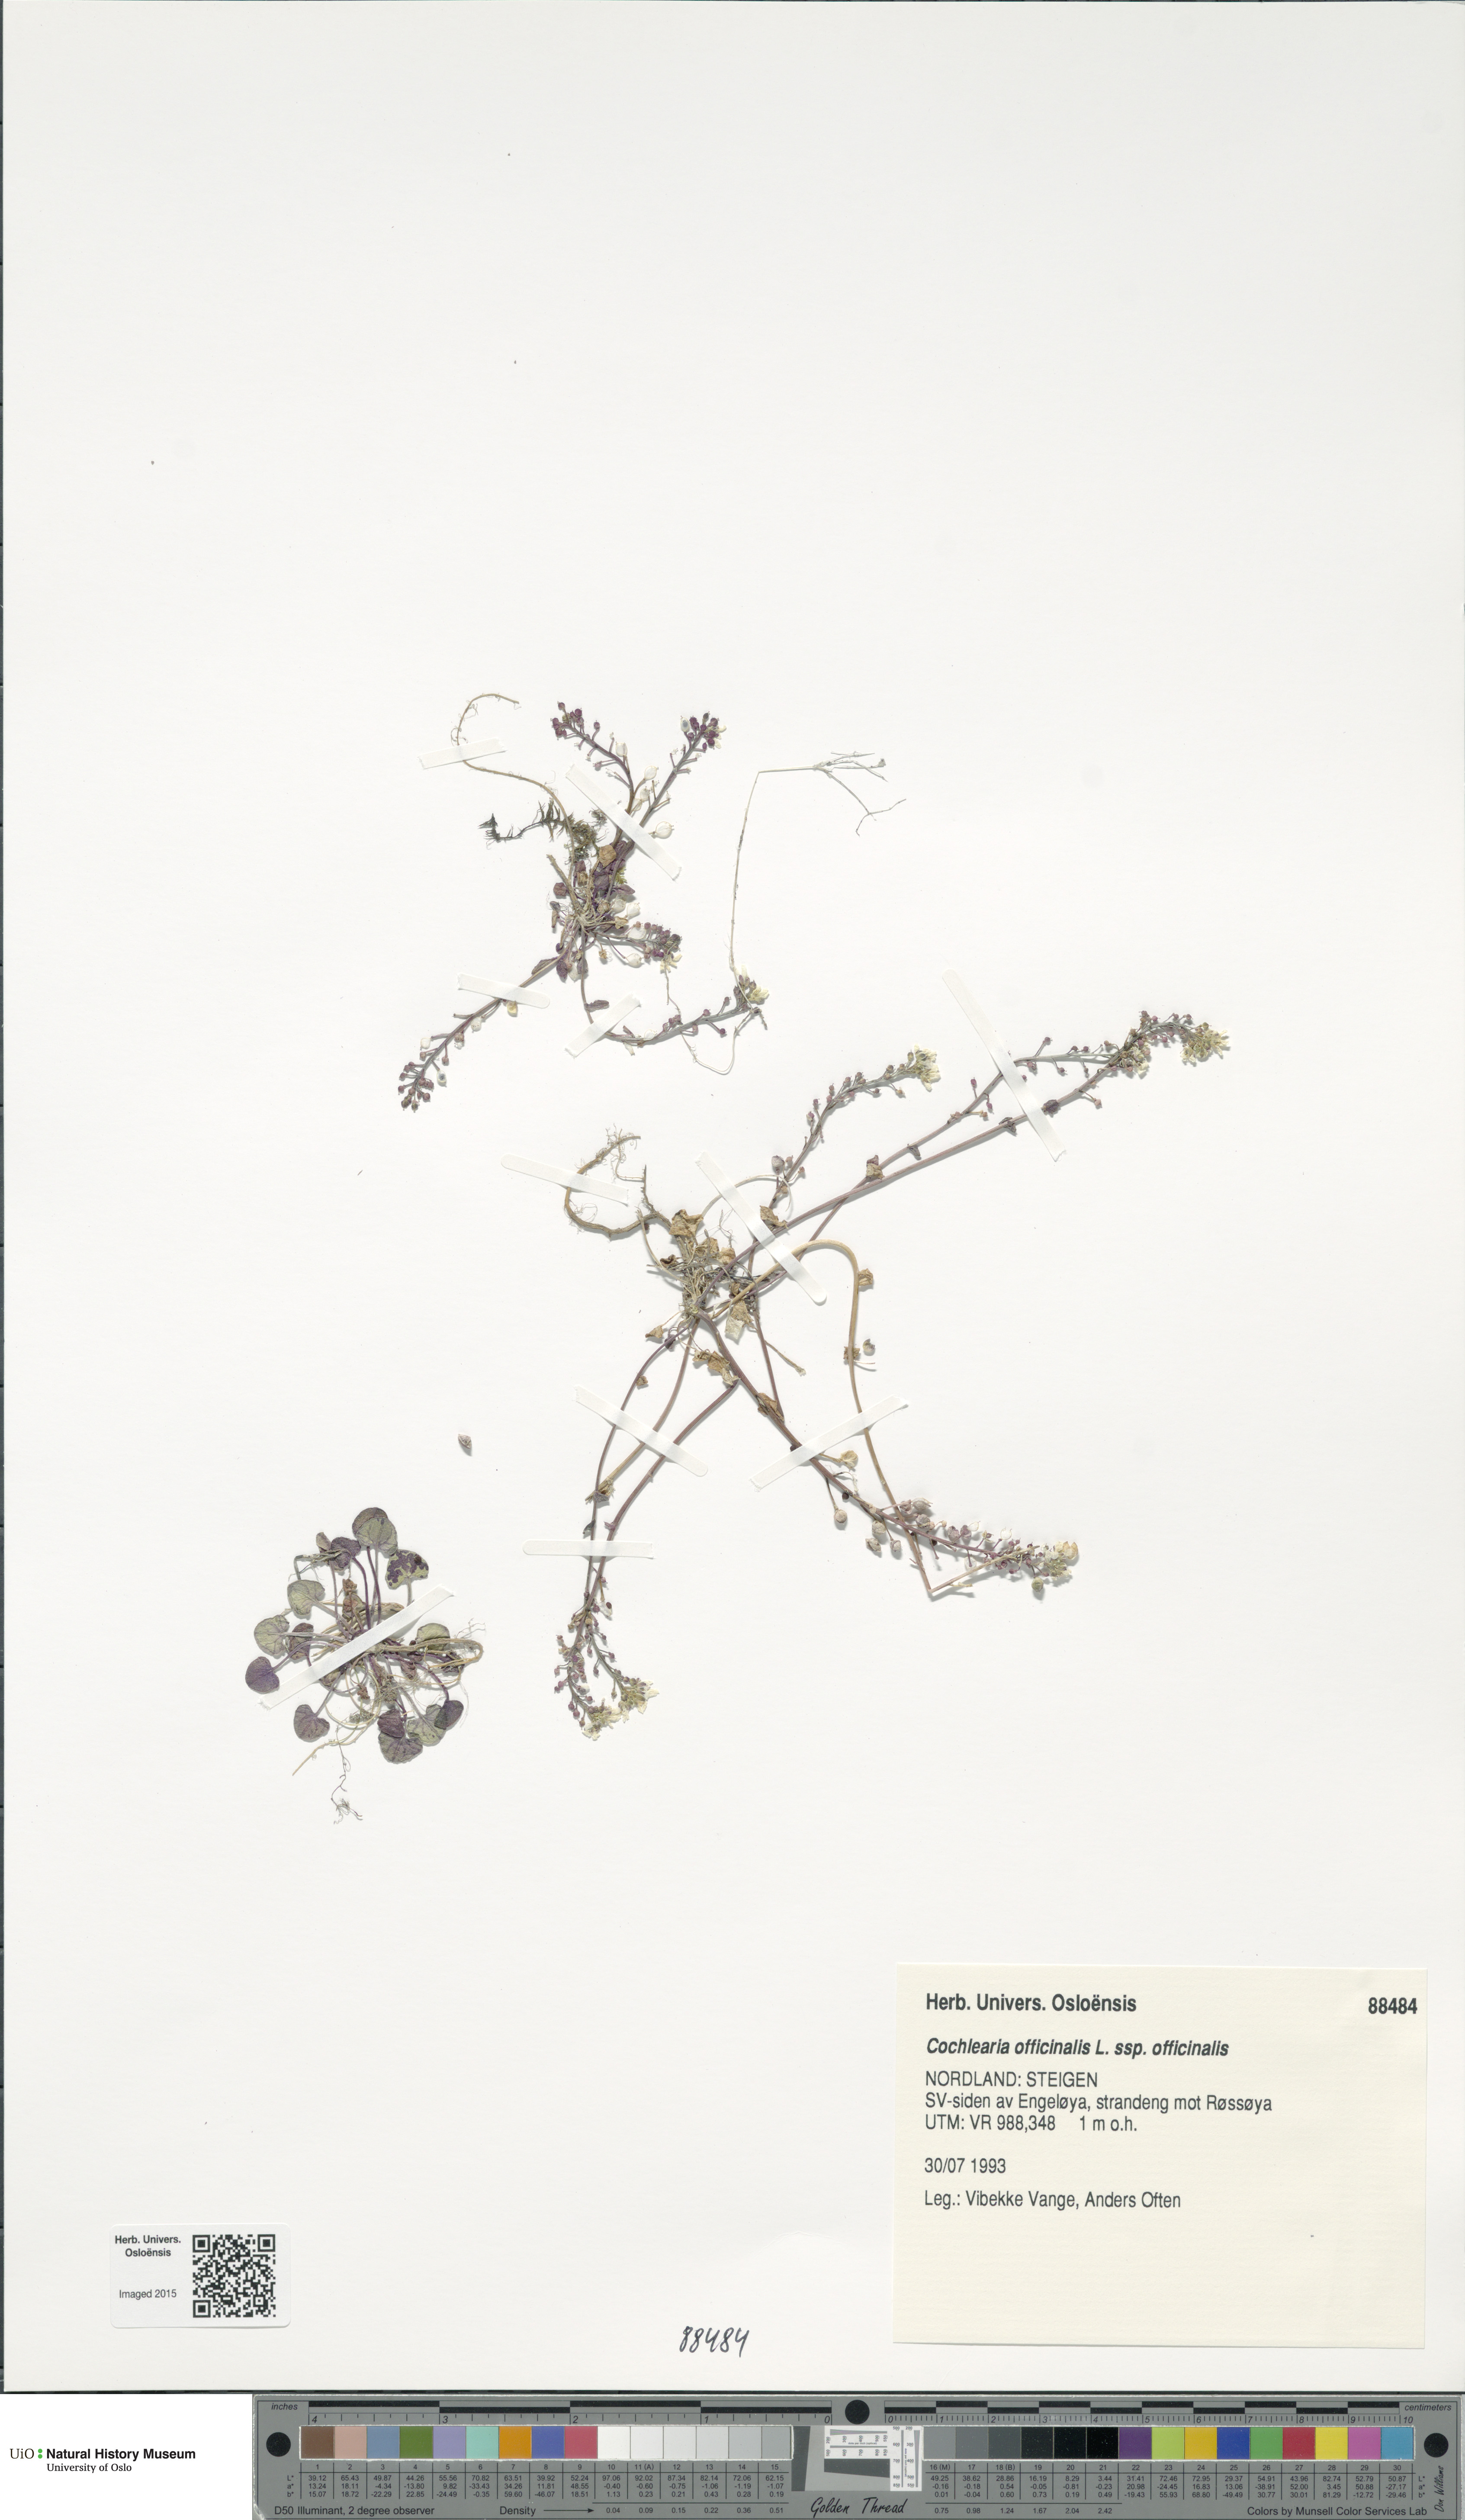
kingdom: Plantae
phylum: Tracheophyta
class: Magnoliopsida
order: Brassicales
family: Brassicaceae
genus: Cochlearia
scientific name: Cochlearia officinalis
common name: Scurvy-grass
